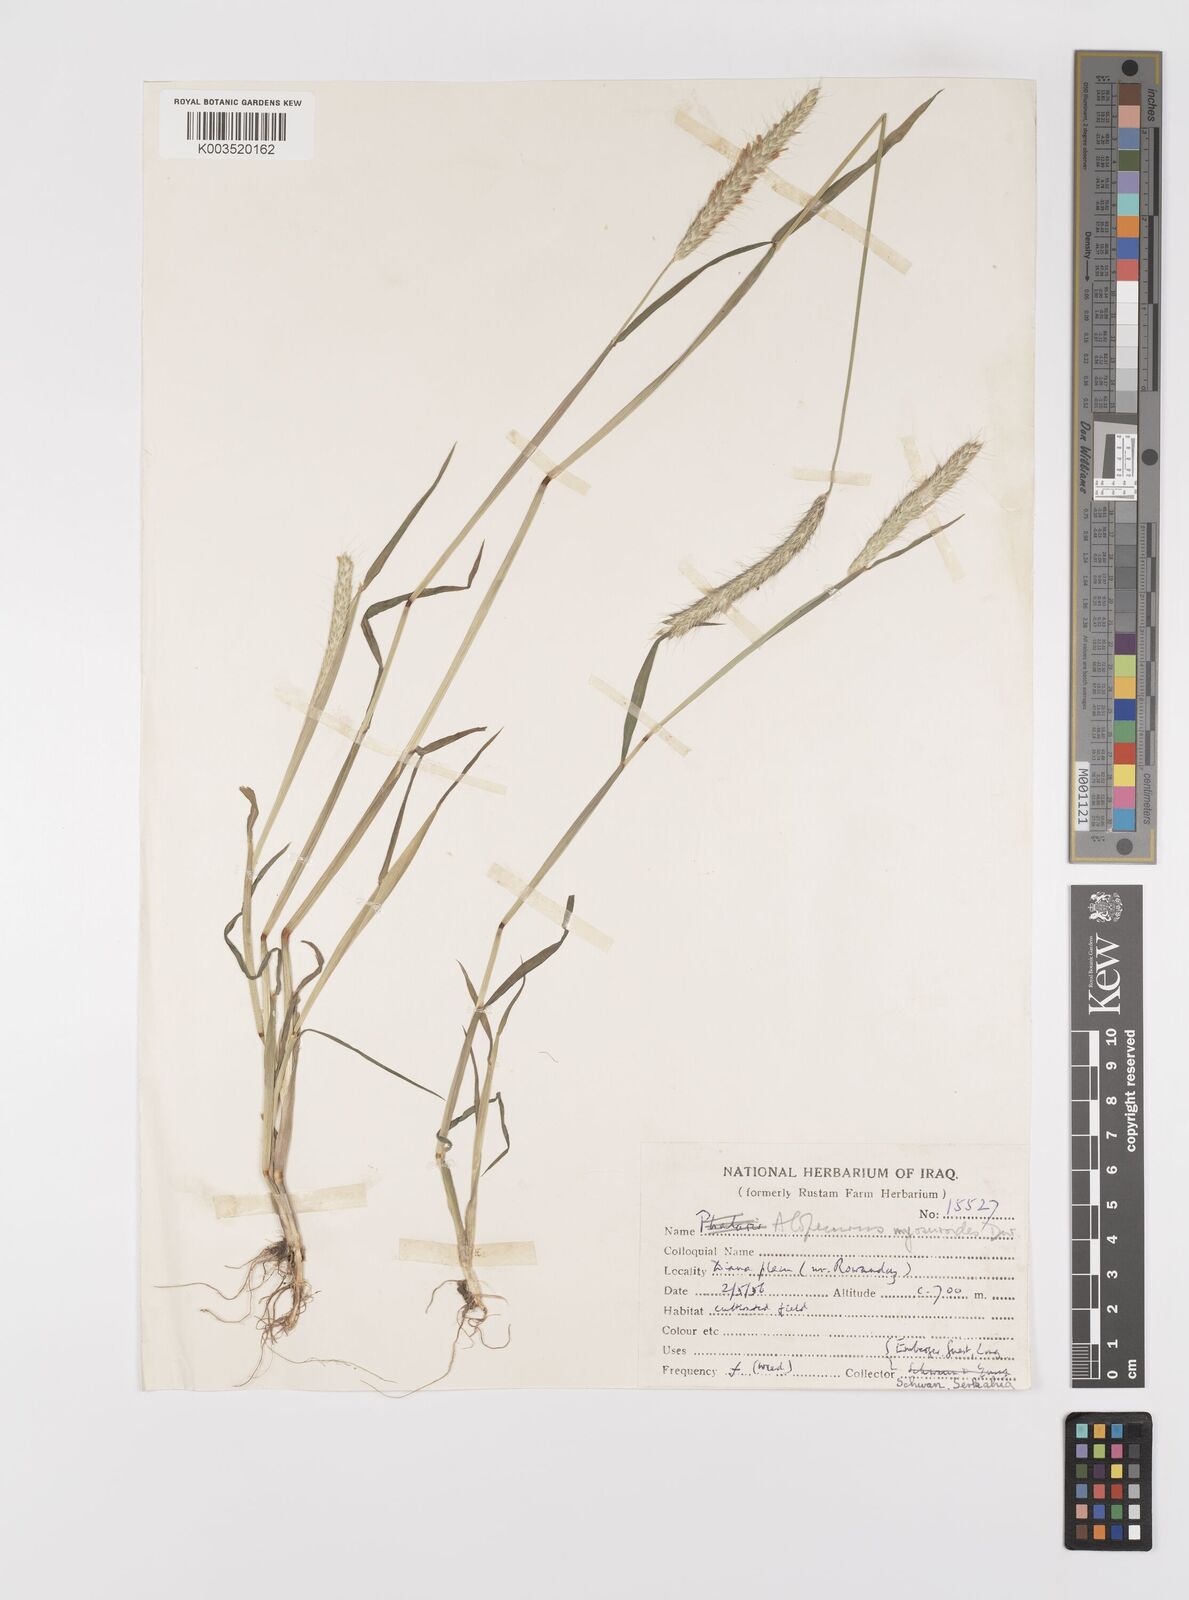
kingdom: Plantae
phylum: Tracheophyta
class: Liliopsida
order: Poales
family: Poaceae
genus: Alopecurus
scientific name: Alopecurus myosuroides
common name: Black-grass
